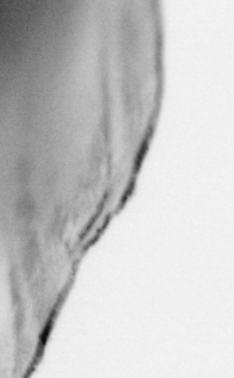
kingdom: Animalia
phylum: Chordata
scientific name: Chordata
